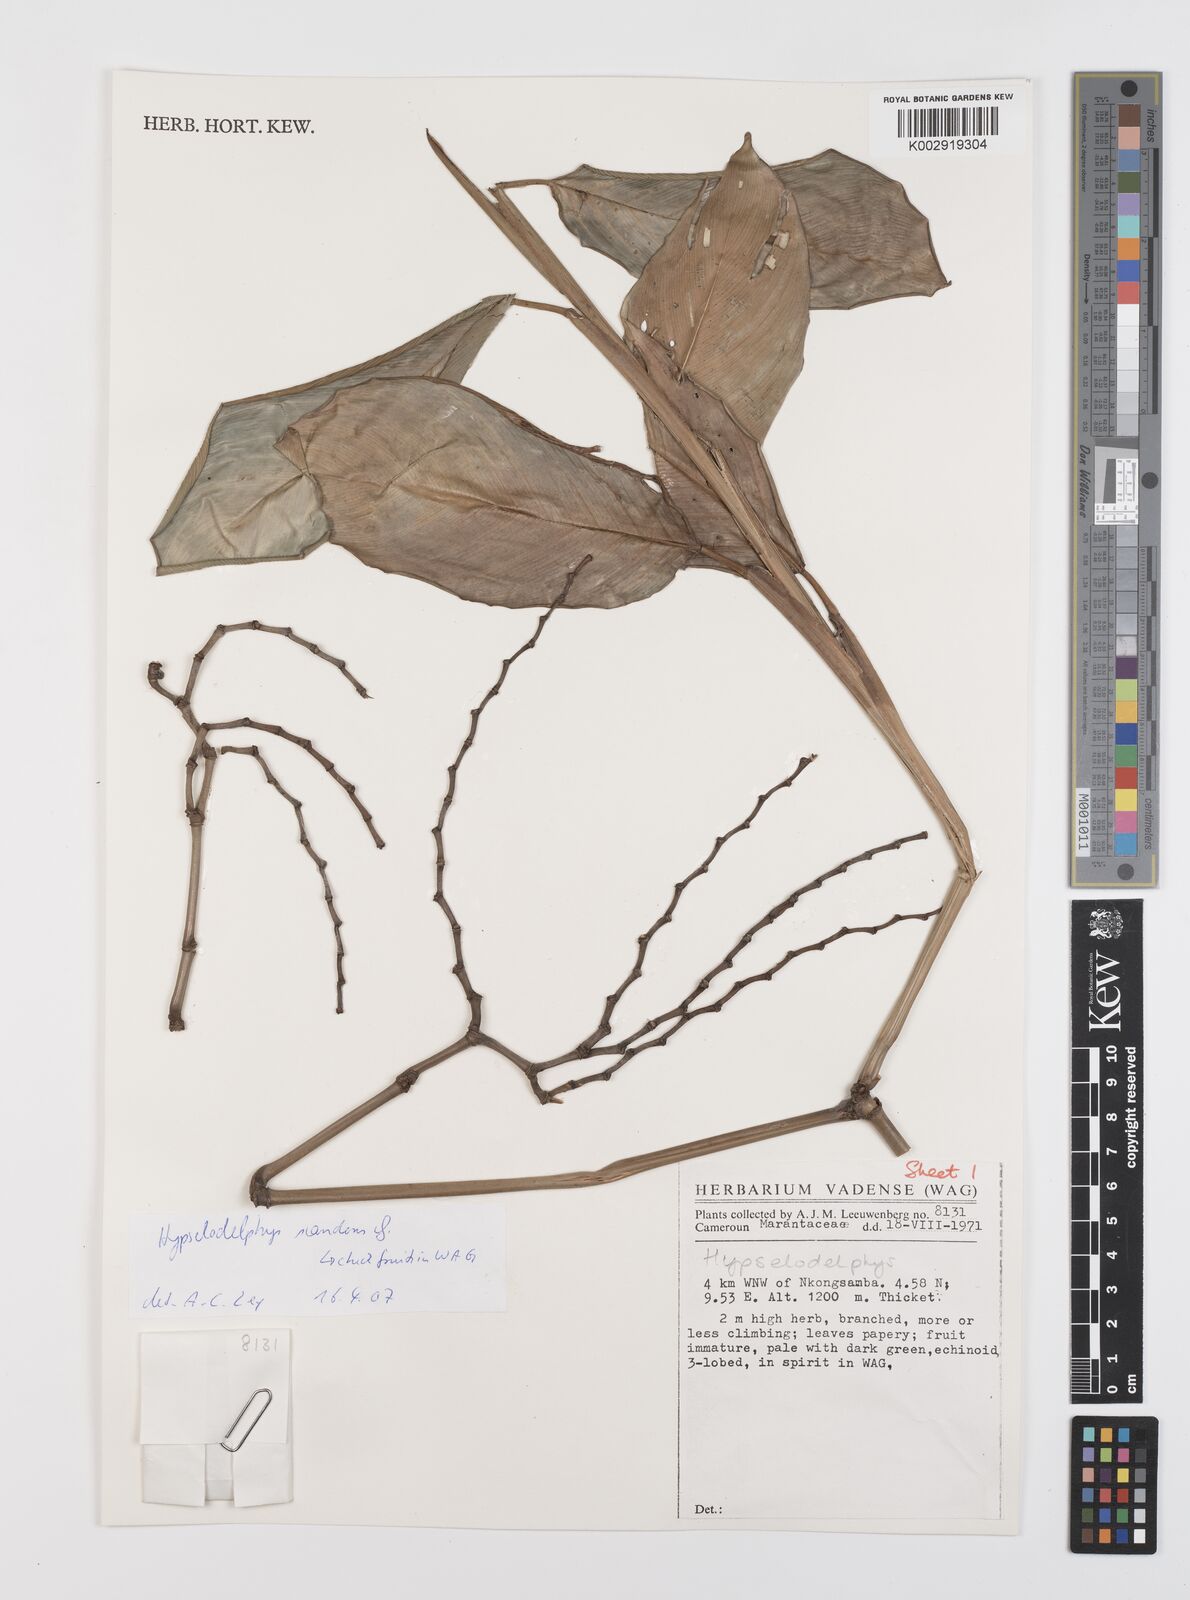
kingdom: Plantae
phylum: Tracheophyta
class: Liliopsida
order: Zingiberales
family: Marantaceae
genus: Hypselodelphys
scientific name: Hypselodelphys scandens
